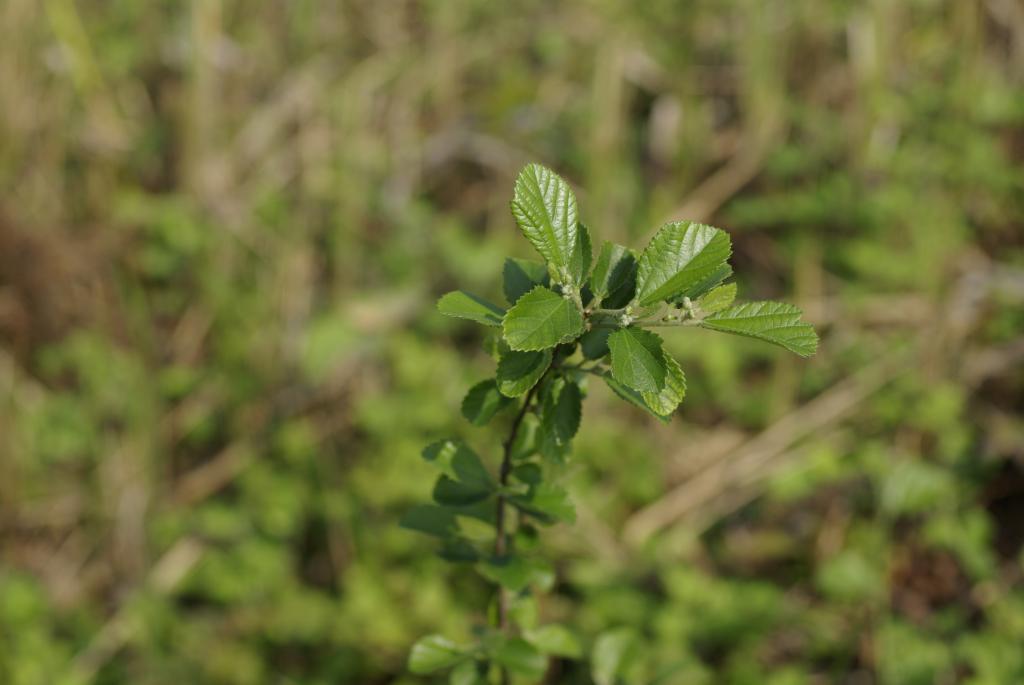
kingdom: Plantae
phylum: Tracheophyta
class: Magnoliopsida
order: Malvales
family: Malvaceae
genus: Grewia
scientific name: Grewia rhombifolia
